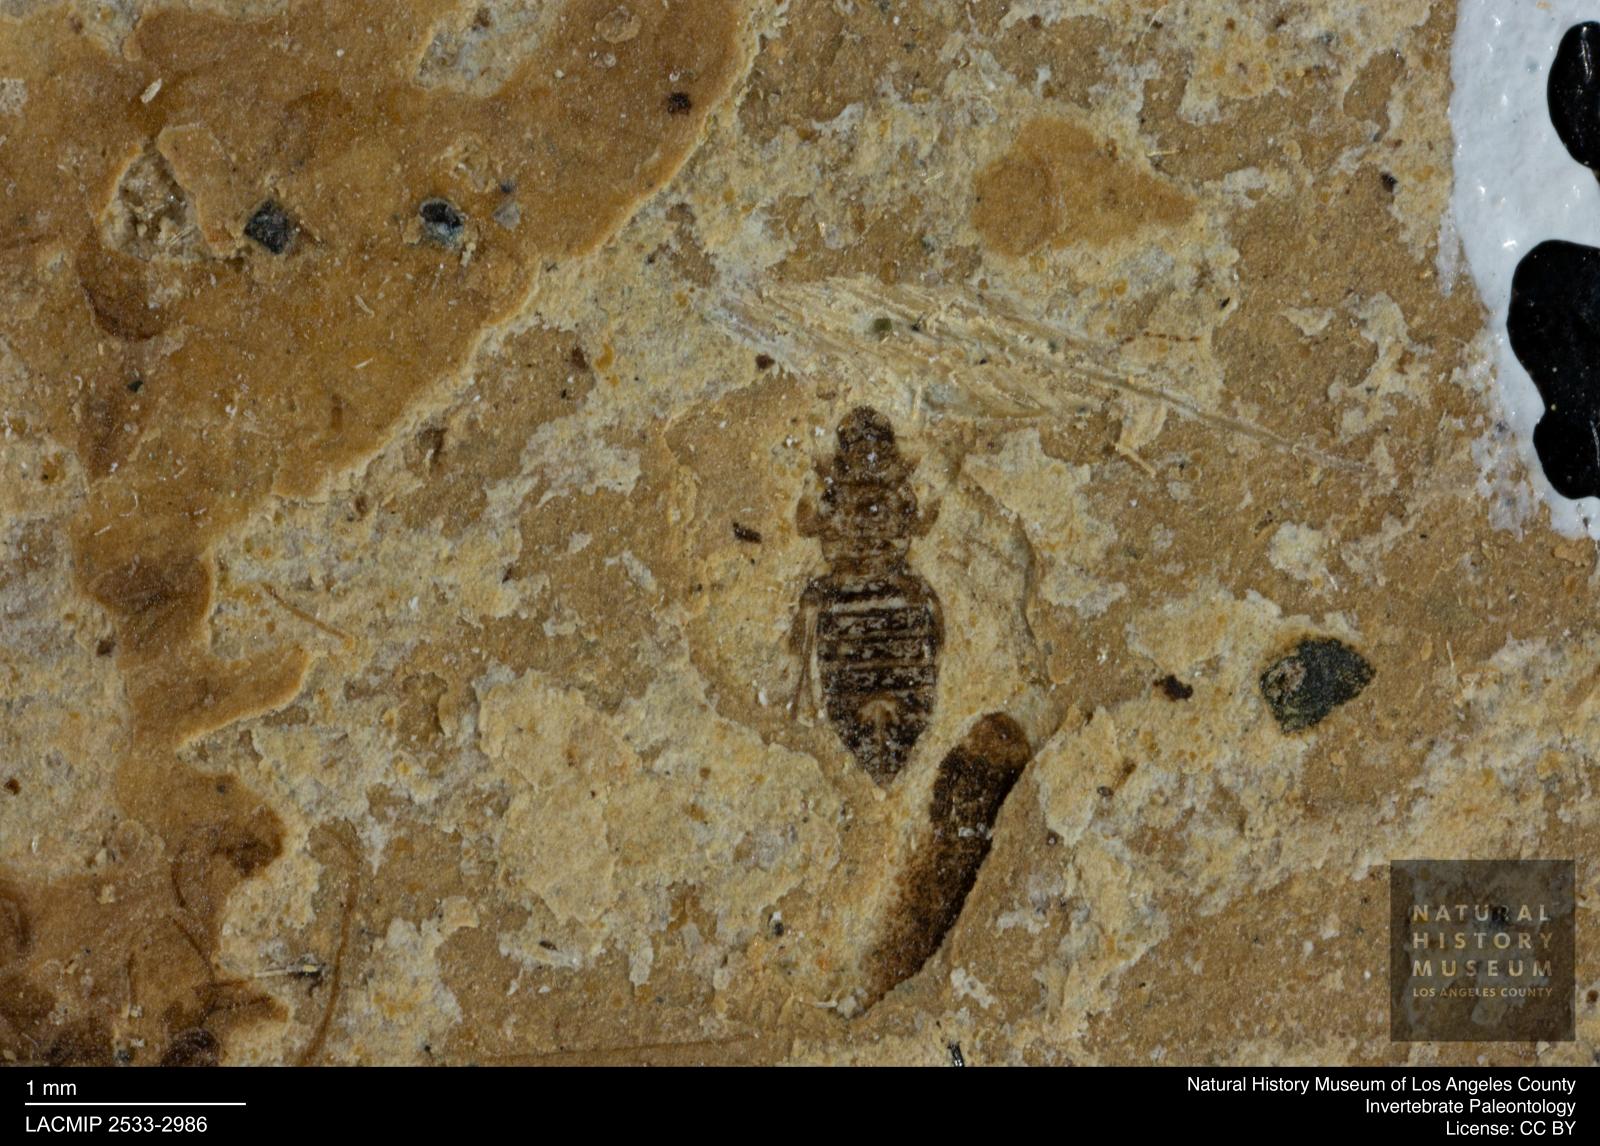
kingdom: Animalia
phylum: Arthropoda
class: Insecta
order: Thysanoptera
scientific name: Thysanoptera
